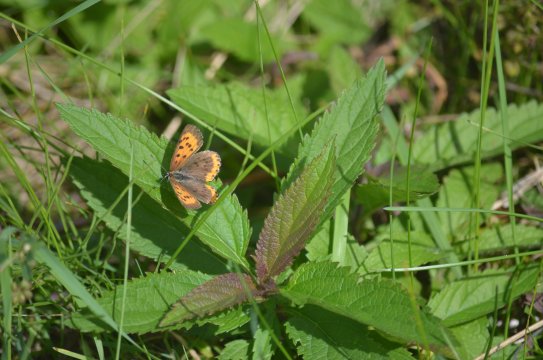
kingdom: Animalia
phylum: Arthropoda
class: Insecta
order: Lepidoptera
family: Sesiidae
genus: Sesia
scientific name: Sesia Lycaena hyllus
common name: Bronze Copper
